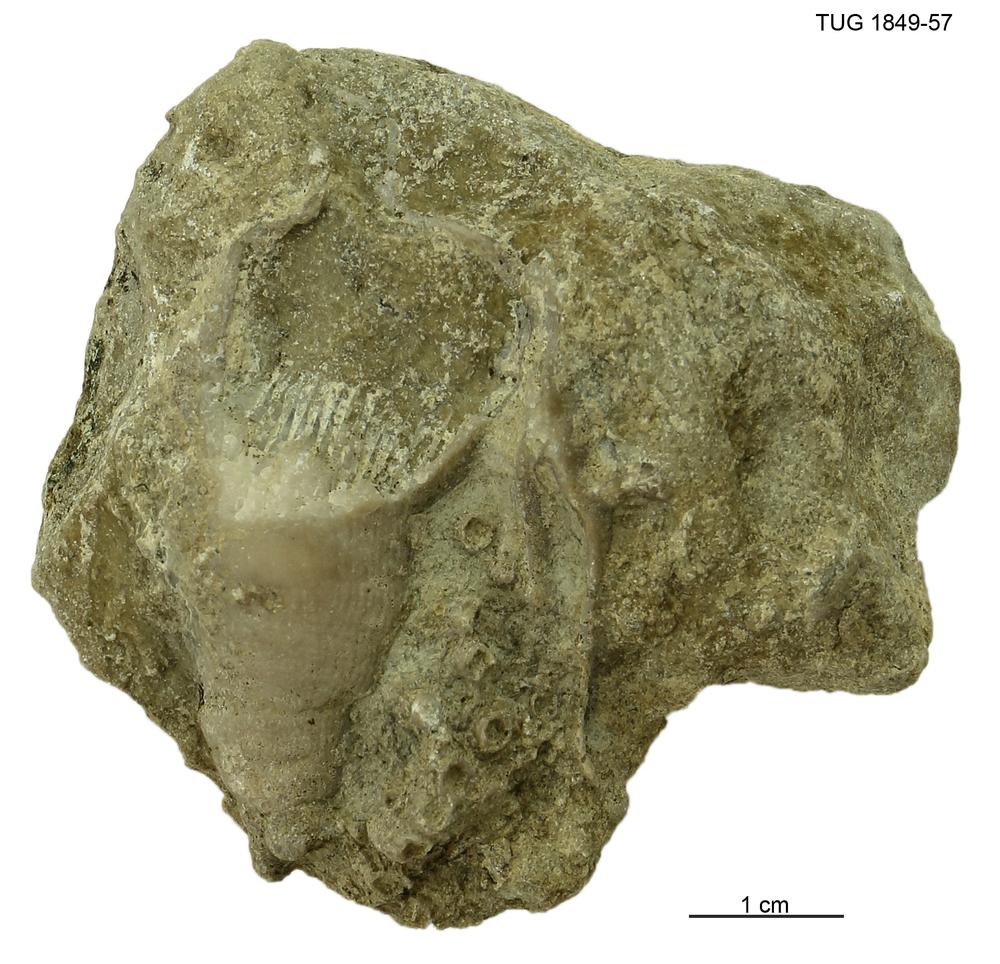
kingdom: Animalia
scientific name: Animalia
